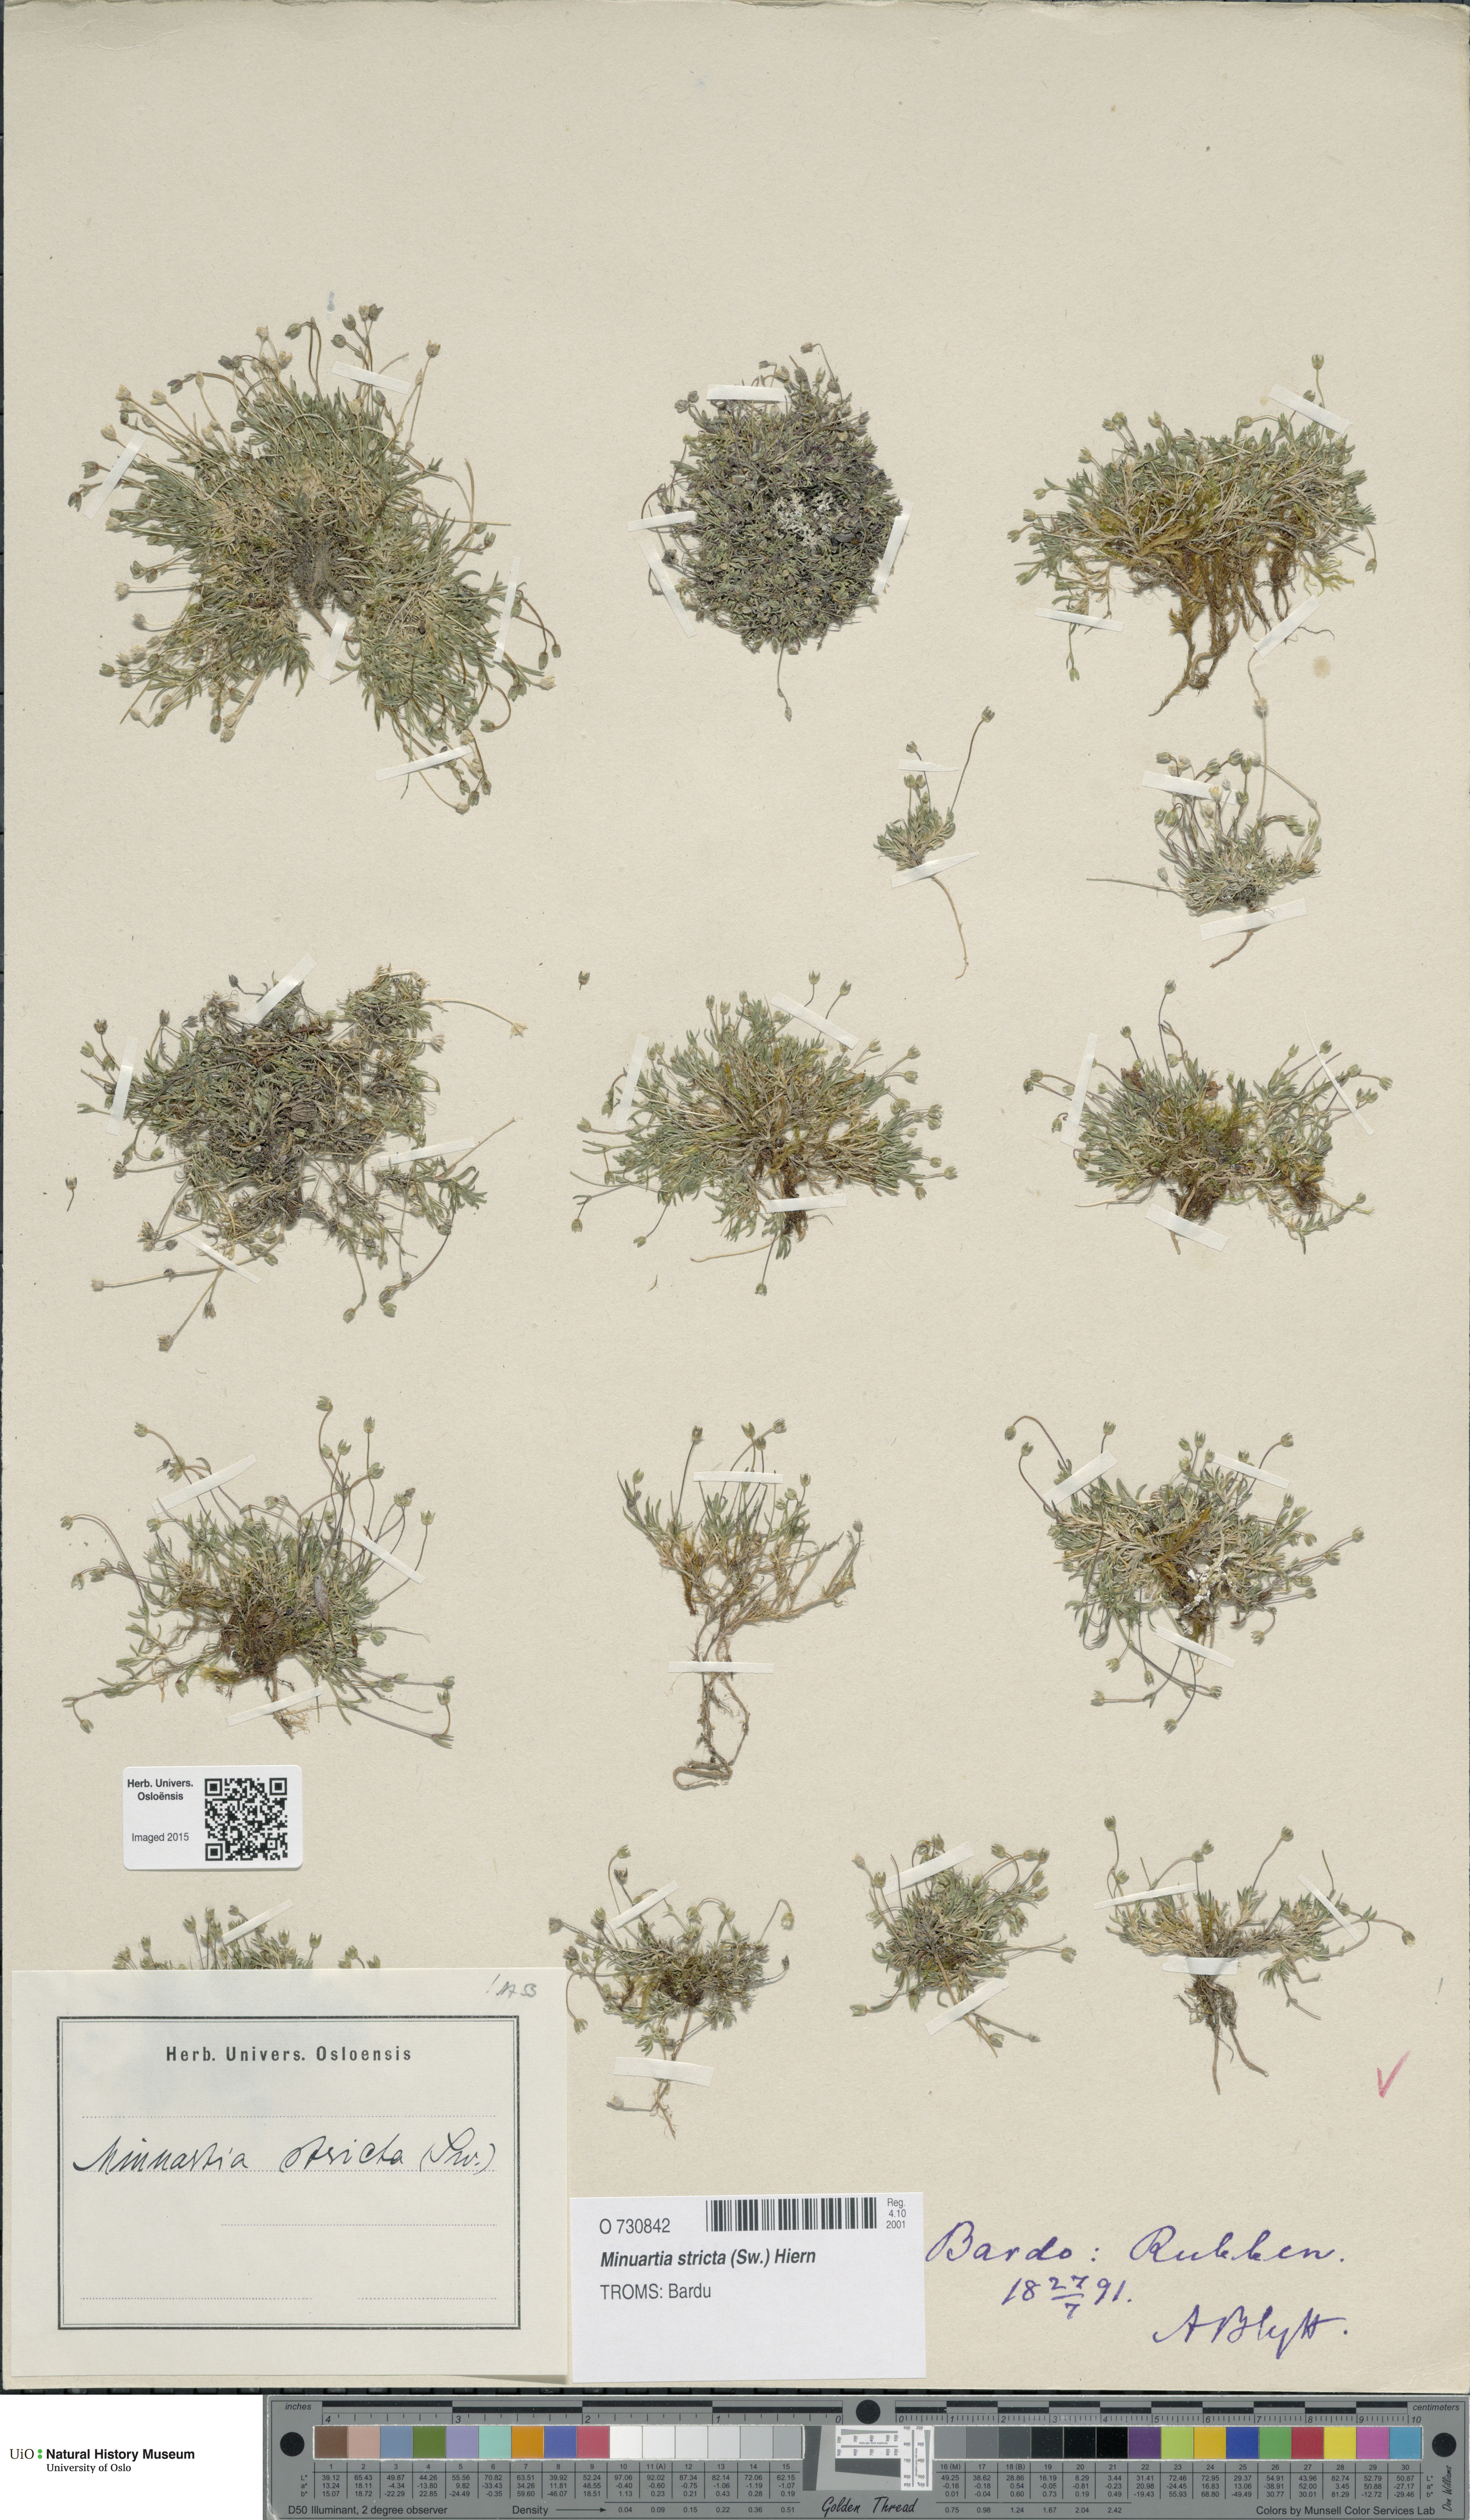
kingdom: Plantae
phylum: Tracheophyta
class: Magnoliopsida
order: Caryophyllales
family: Caryophyllaceae
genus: Sabulina
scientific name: Sabulina stricta
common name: Bog sandwort
